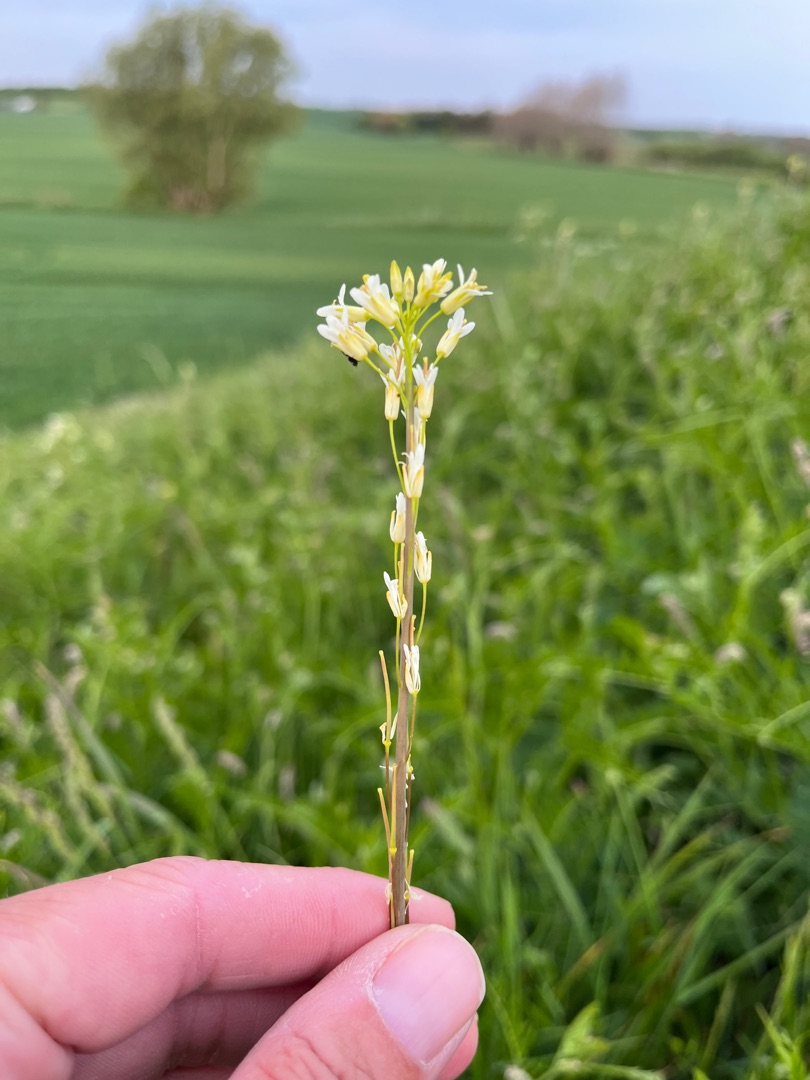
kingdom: Plantae
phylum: Tracheophyta
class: Magnoliopsida
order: Brassicales
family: Brassicaceae
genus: Turritis
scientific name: Turritis glabra
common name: Tårnurt
